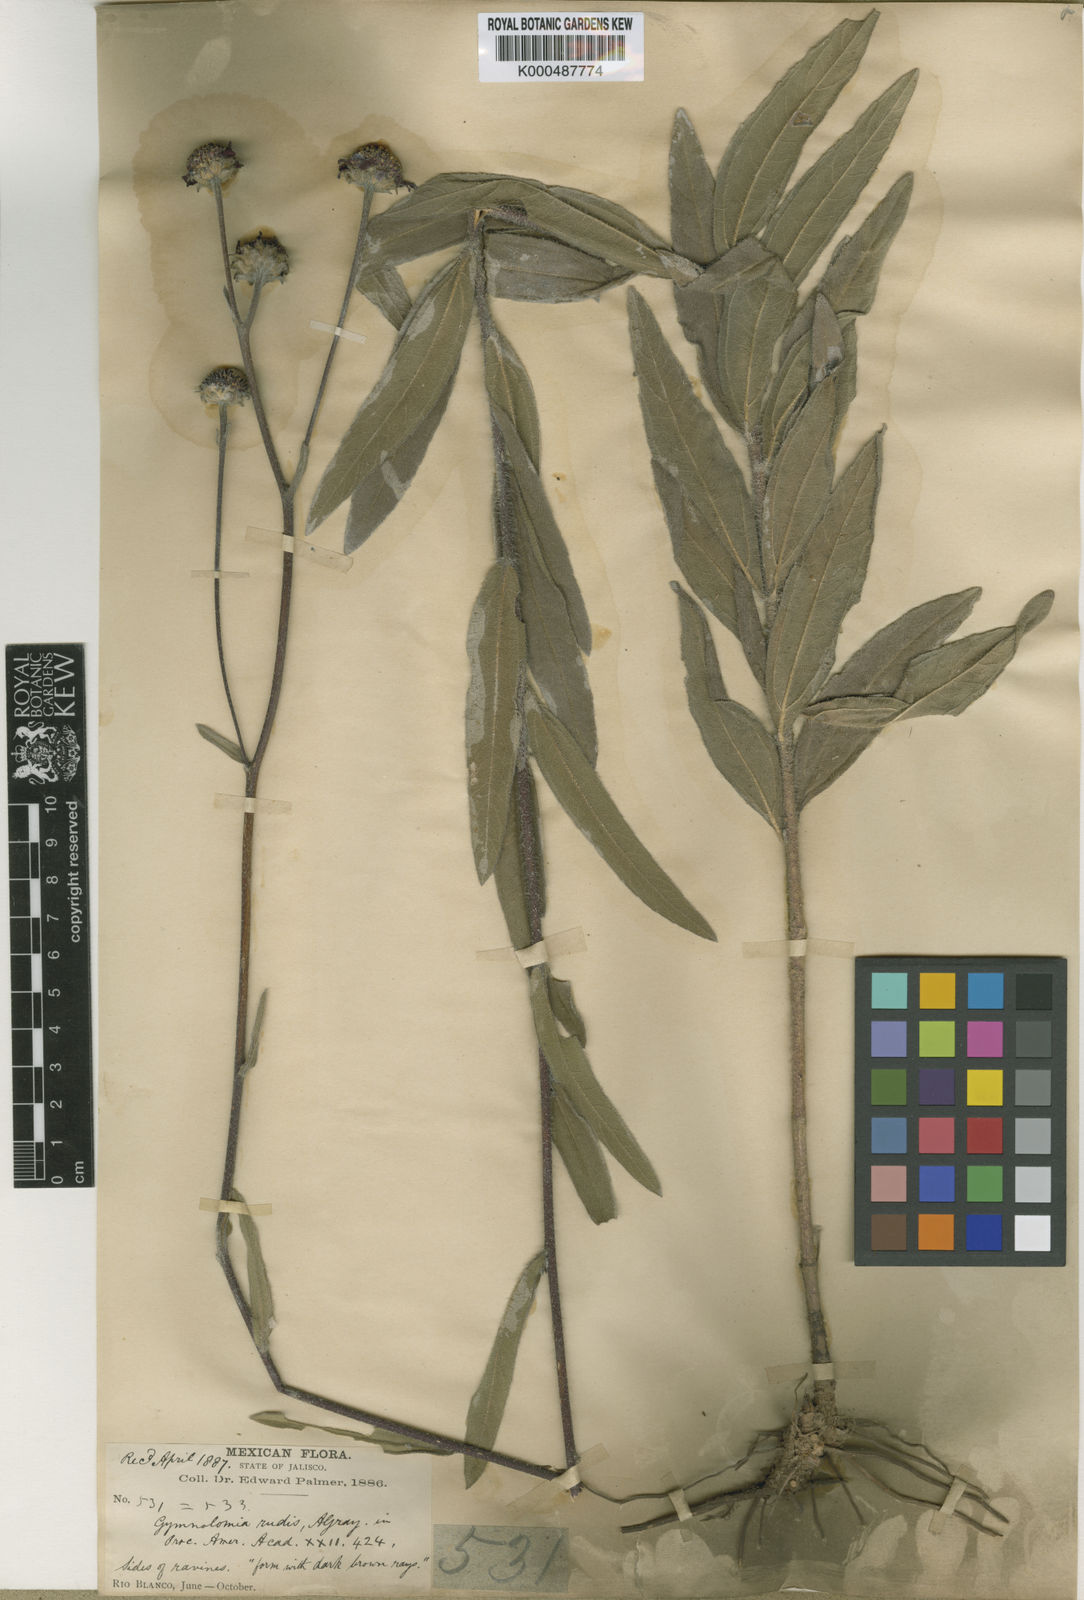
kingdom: Plantae
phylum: Tracheophyta
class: Magnoliopsida
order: Asterales
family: Asteraceae
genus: Aldama
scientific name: Aldama parkinsonii
